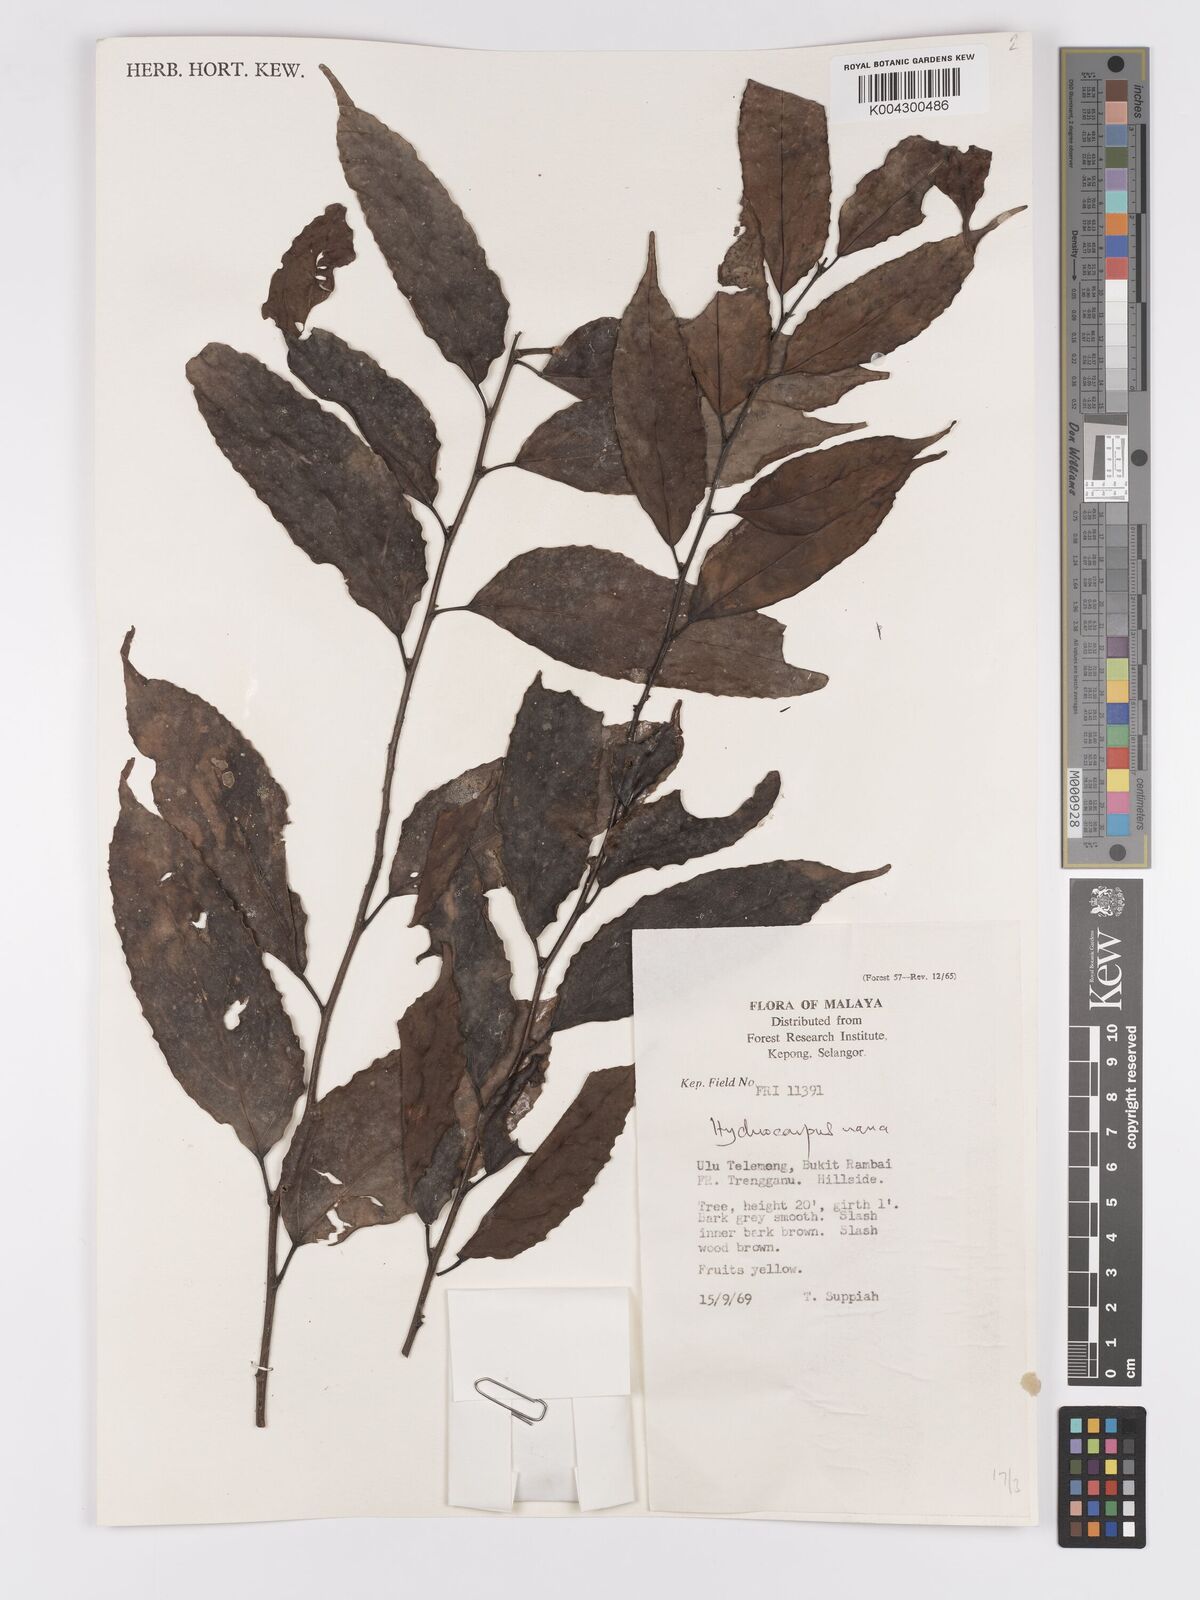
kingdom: Plantae
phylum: Tracheophyta
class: Magnoliopsida
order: Malpighiales
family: Achariaceae
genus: Hydnocarpus
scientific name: Hydnocarpus nanus
